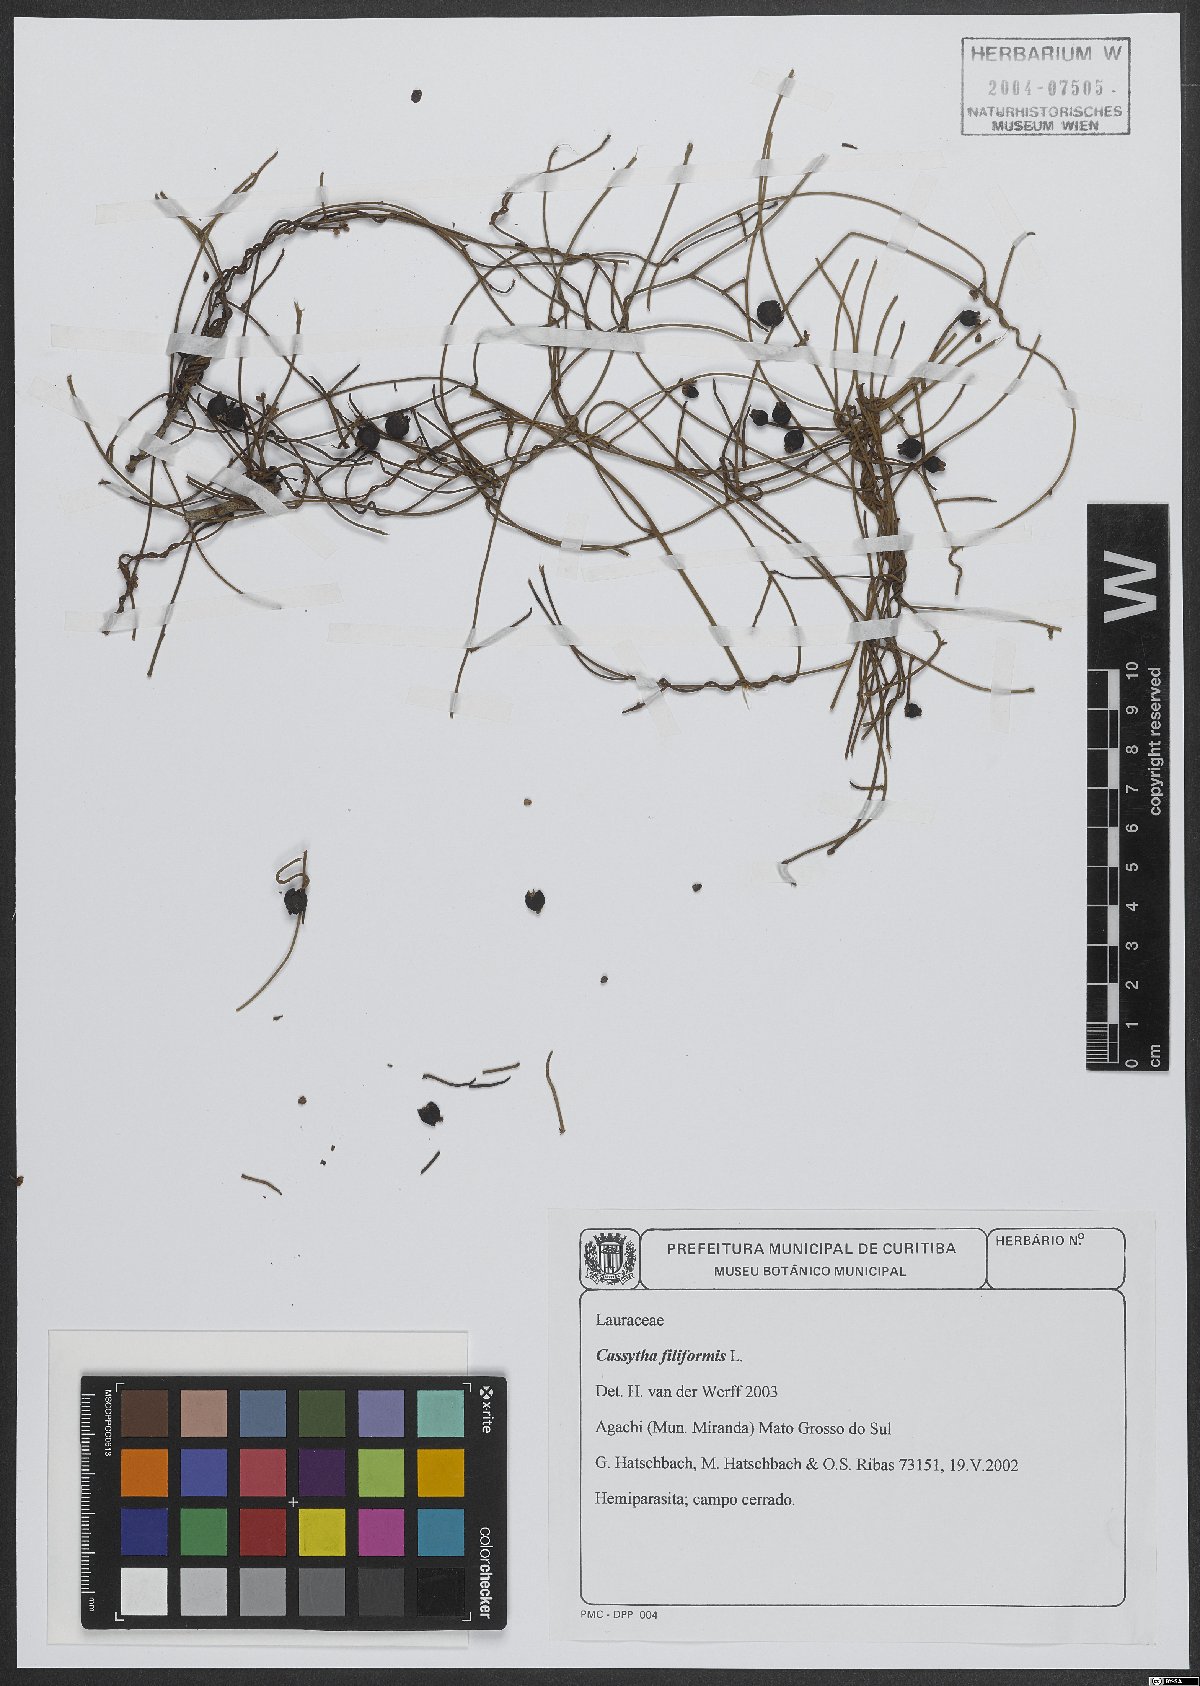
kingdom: Plantae
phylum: Tracheophyta
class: Magnoliopsida
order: Laurales
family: Lauraceae
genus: Cassytha
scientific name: Cassytha filiformis
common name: Dodder-laurel
